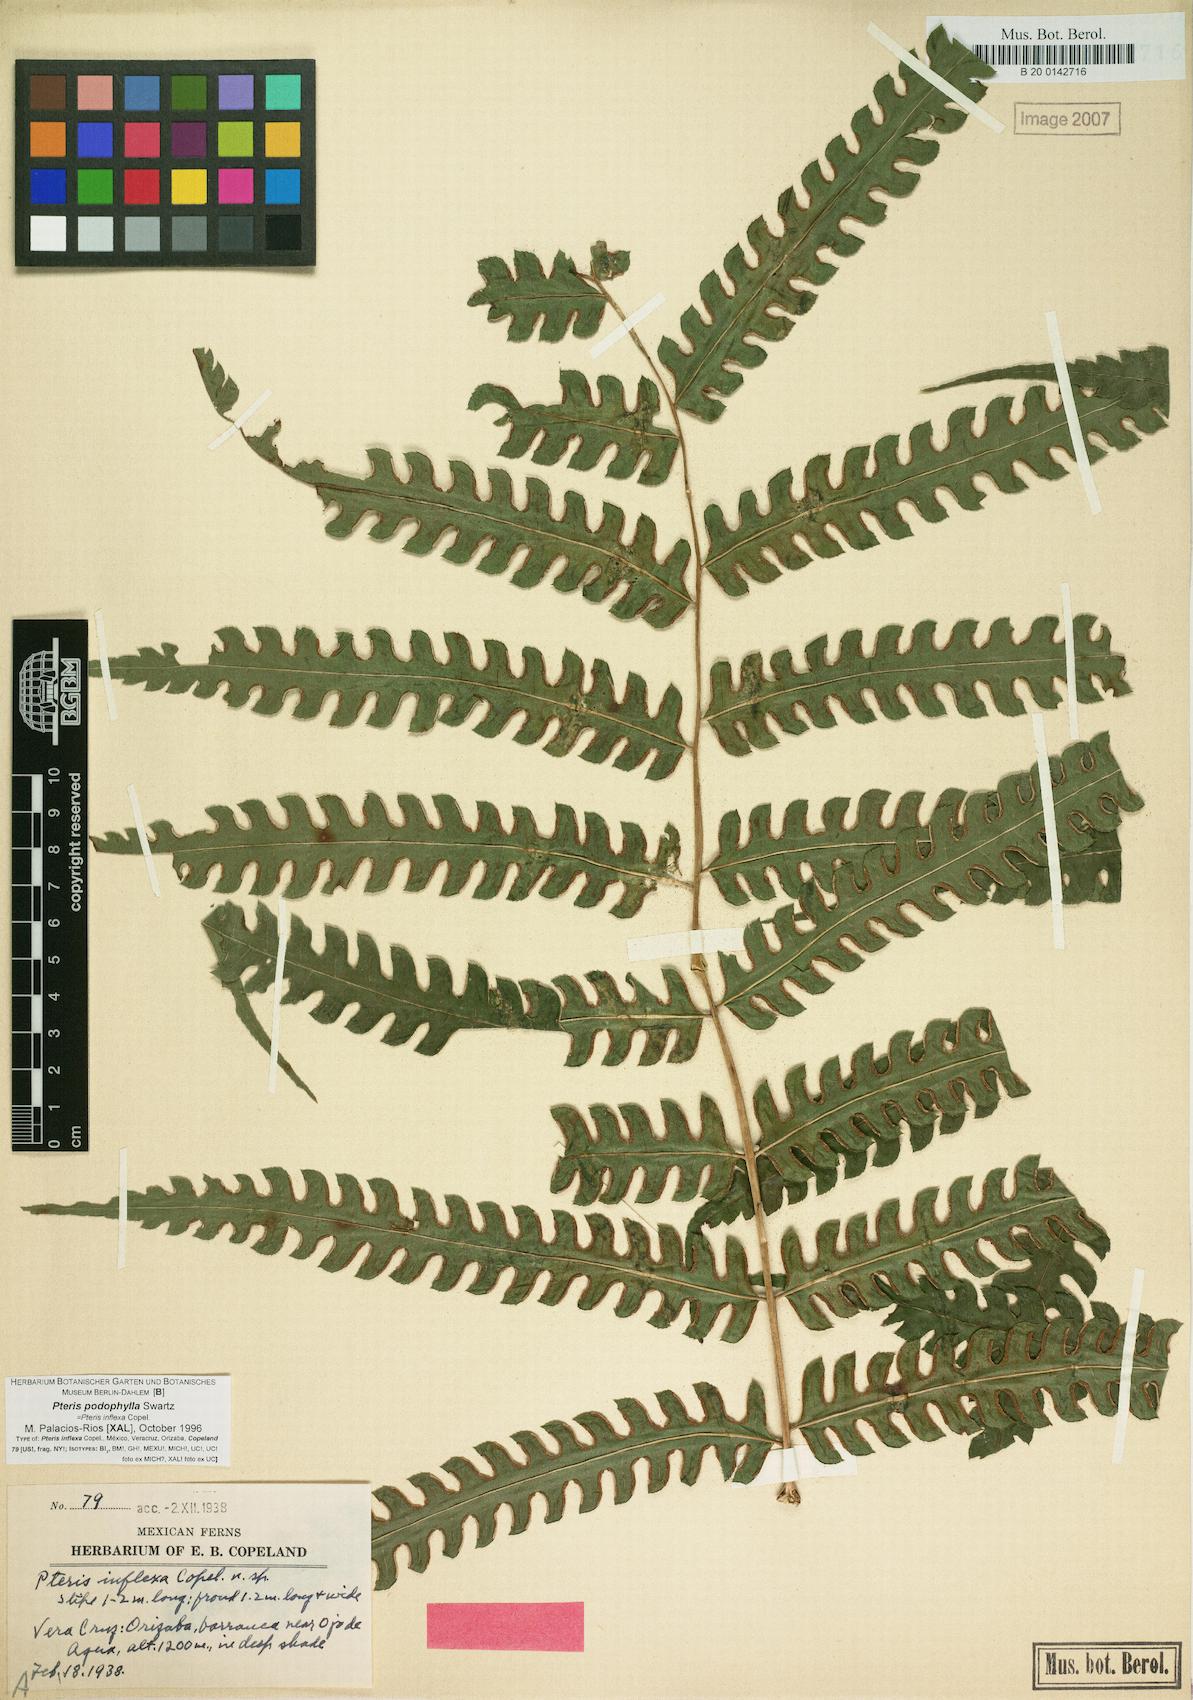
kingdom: Plantae
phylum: Tracheophyta
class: Polypodiopsida
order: Polypodiales
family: Pteridaceae
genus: Pteris
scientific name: Pteris podophylla
